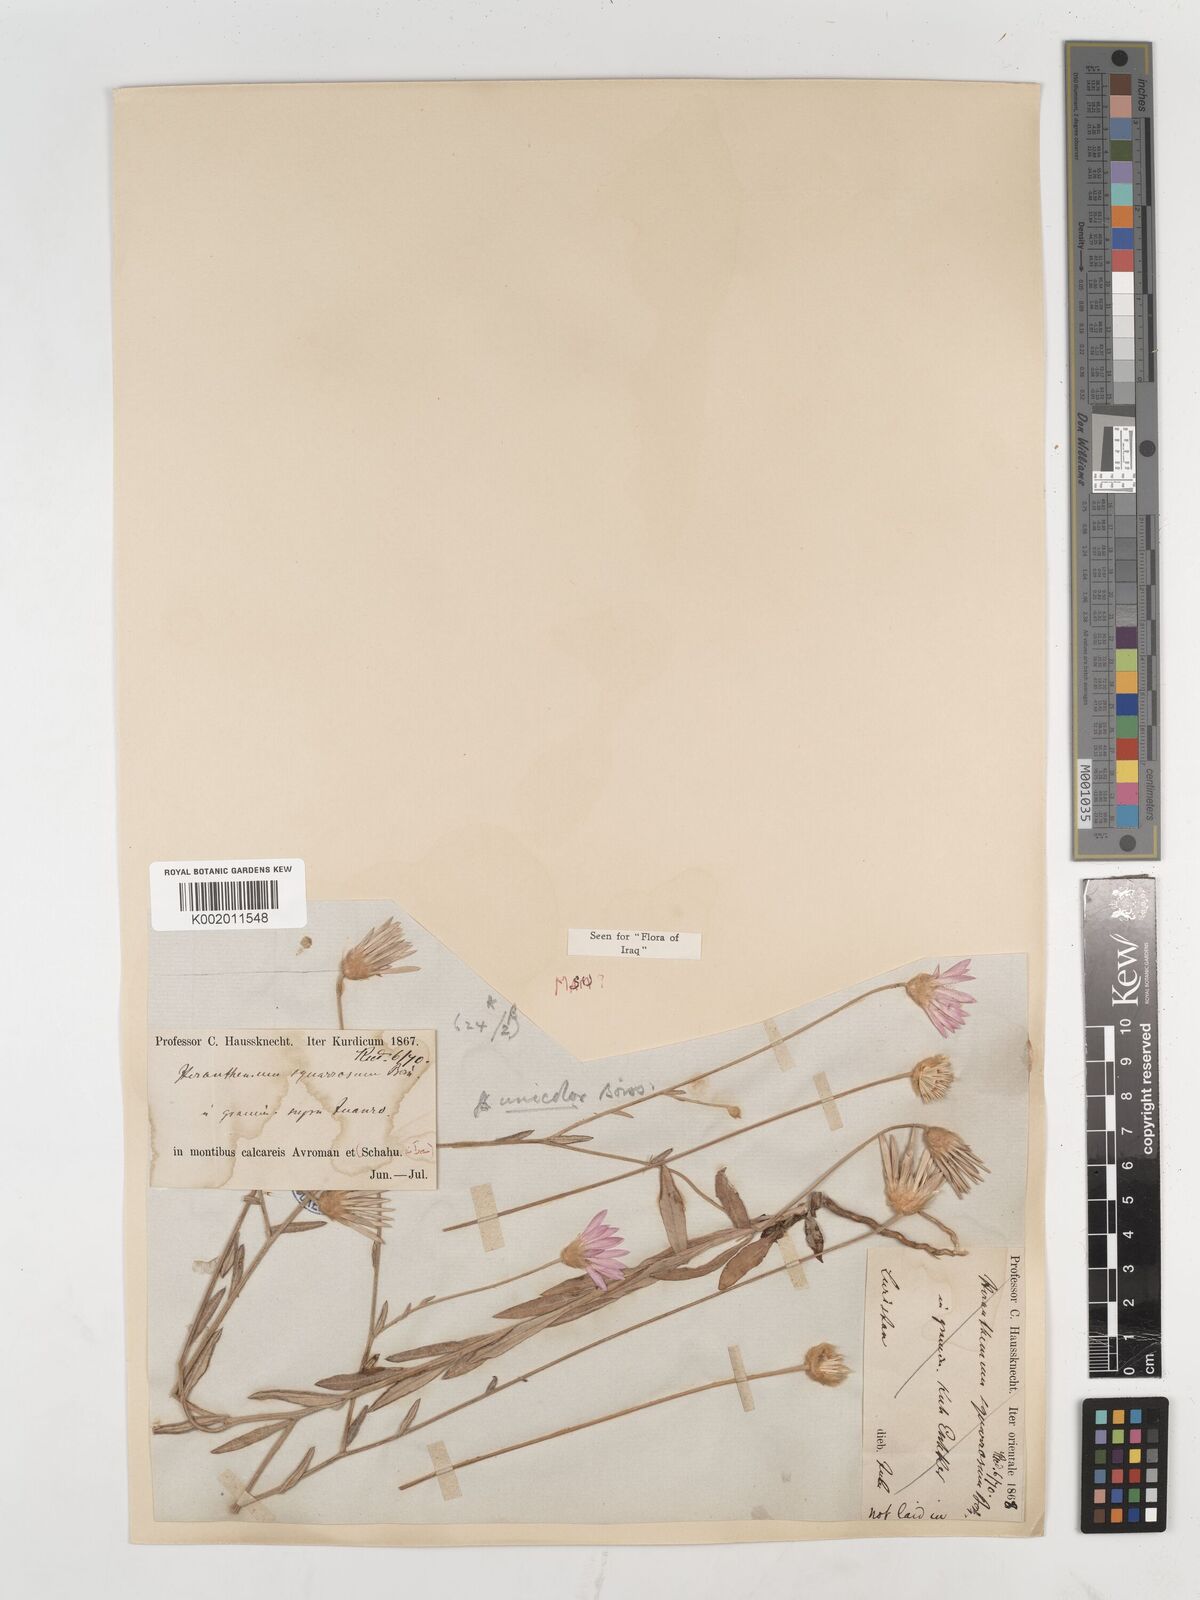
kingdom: Plantae
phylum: Tracheophyta
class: Magnoliopsida
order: Asterales
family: Asteraceae
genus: Xeranthemum
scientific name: Xeranthemum annuum
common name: Immortelle
